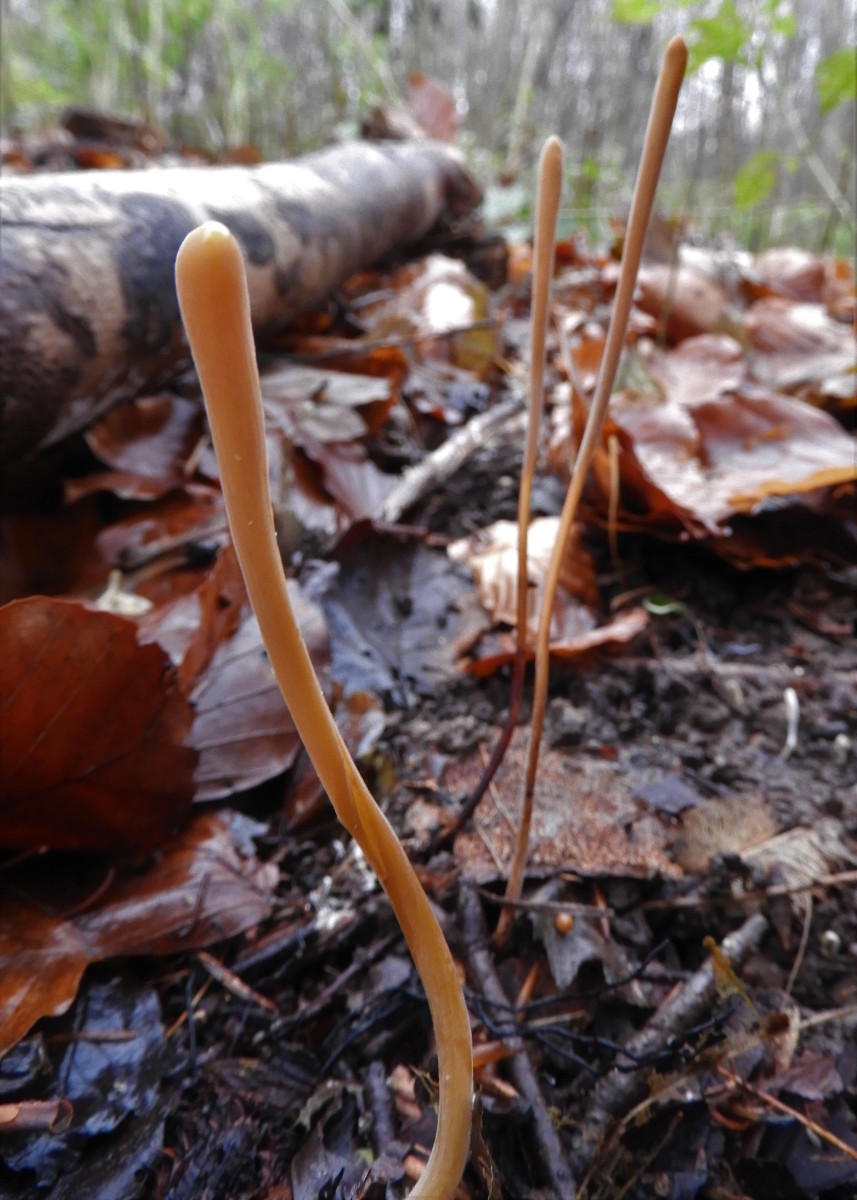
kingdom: Fungi
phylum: Basidiomycota
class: Agaricomycetes
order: Agaricales
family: Typhulaceae
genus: Typhula
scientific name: Typhula fistulosa
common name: pibet rørkølle
